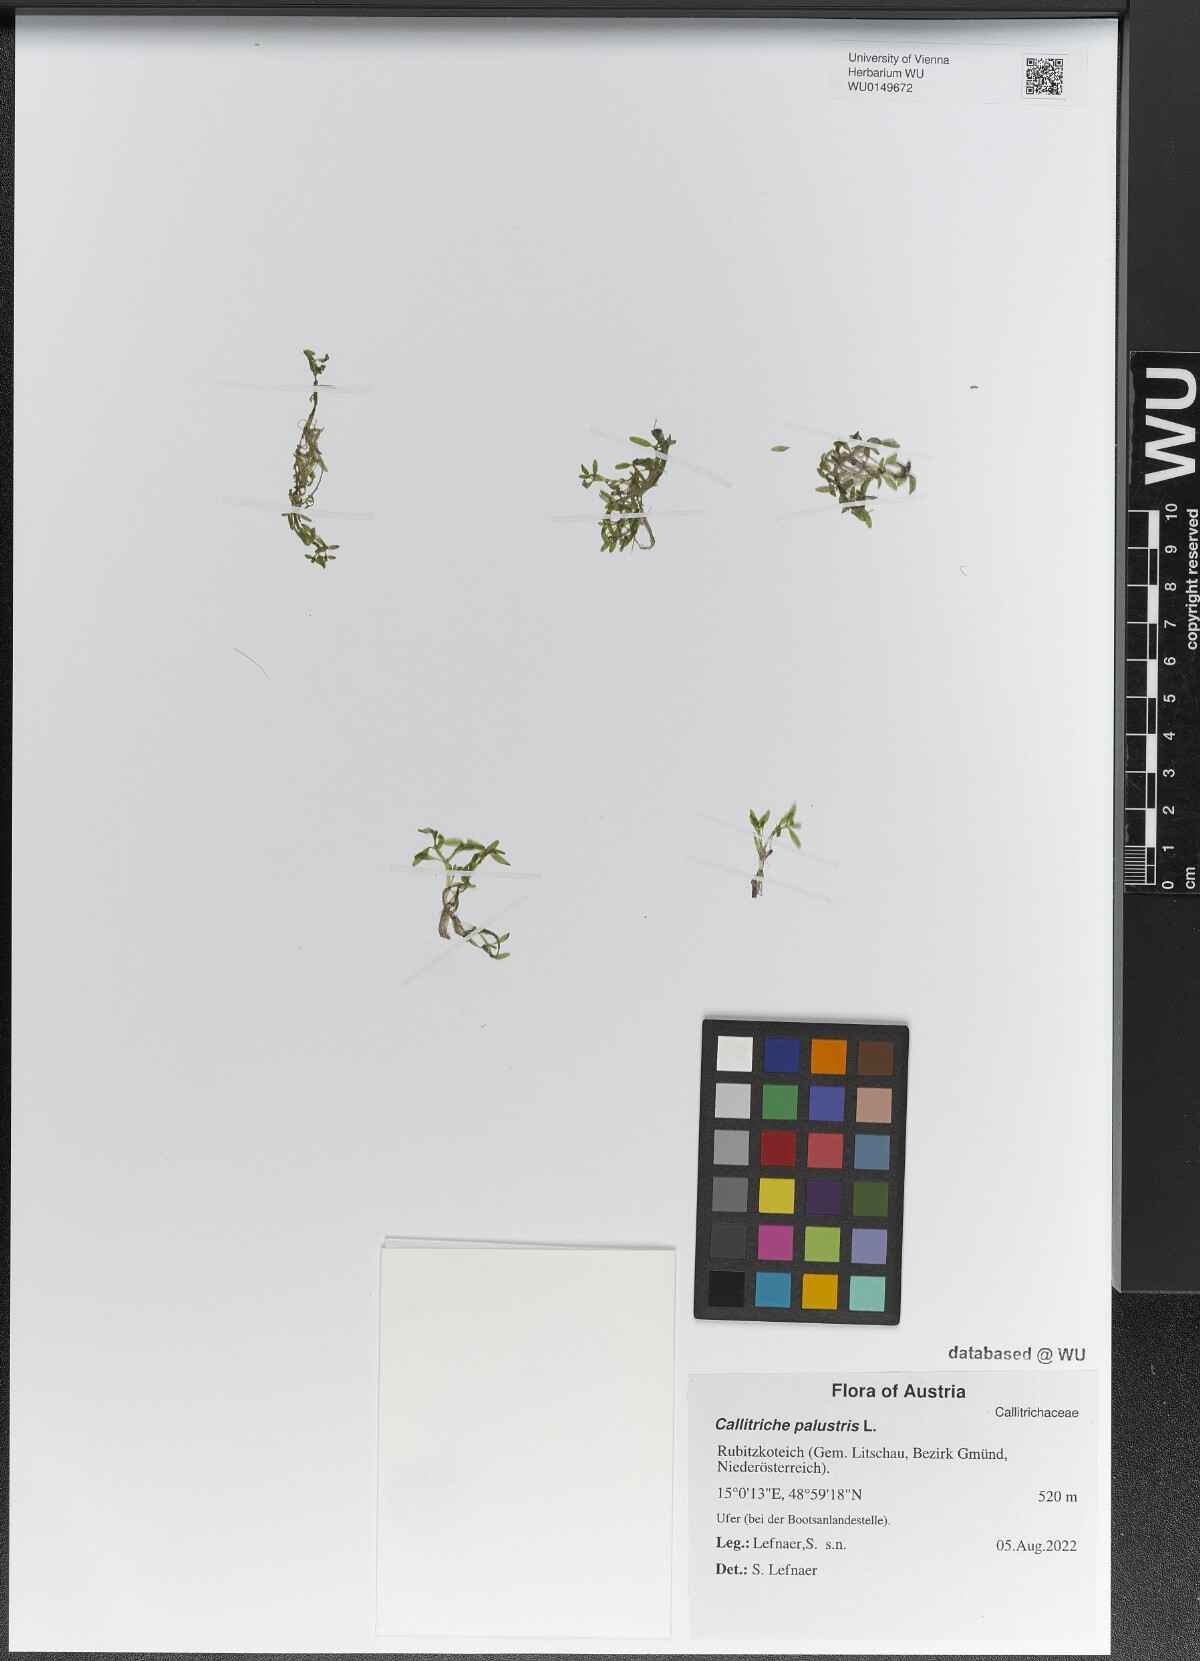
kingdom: Plantae
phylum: Tracheophyta
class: Magnoliopsida
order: Lamiales
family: Plantaginaceae
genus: Callitriche
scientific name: Callitriche palustris
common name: Spring water-starwort
